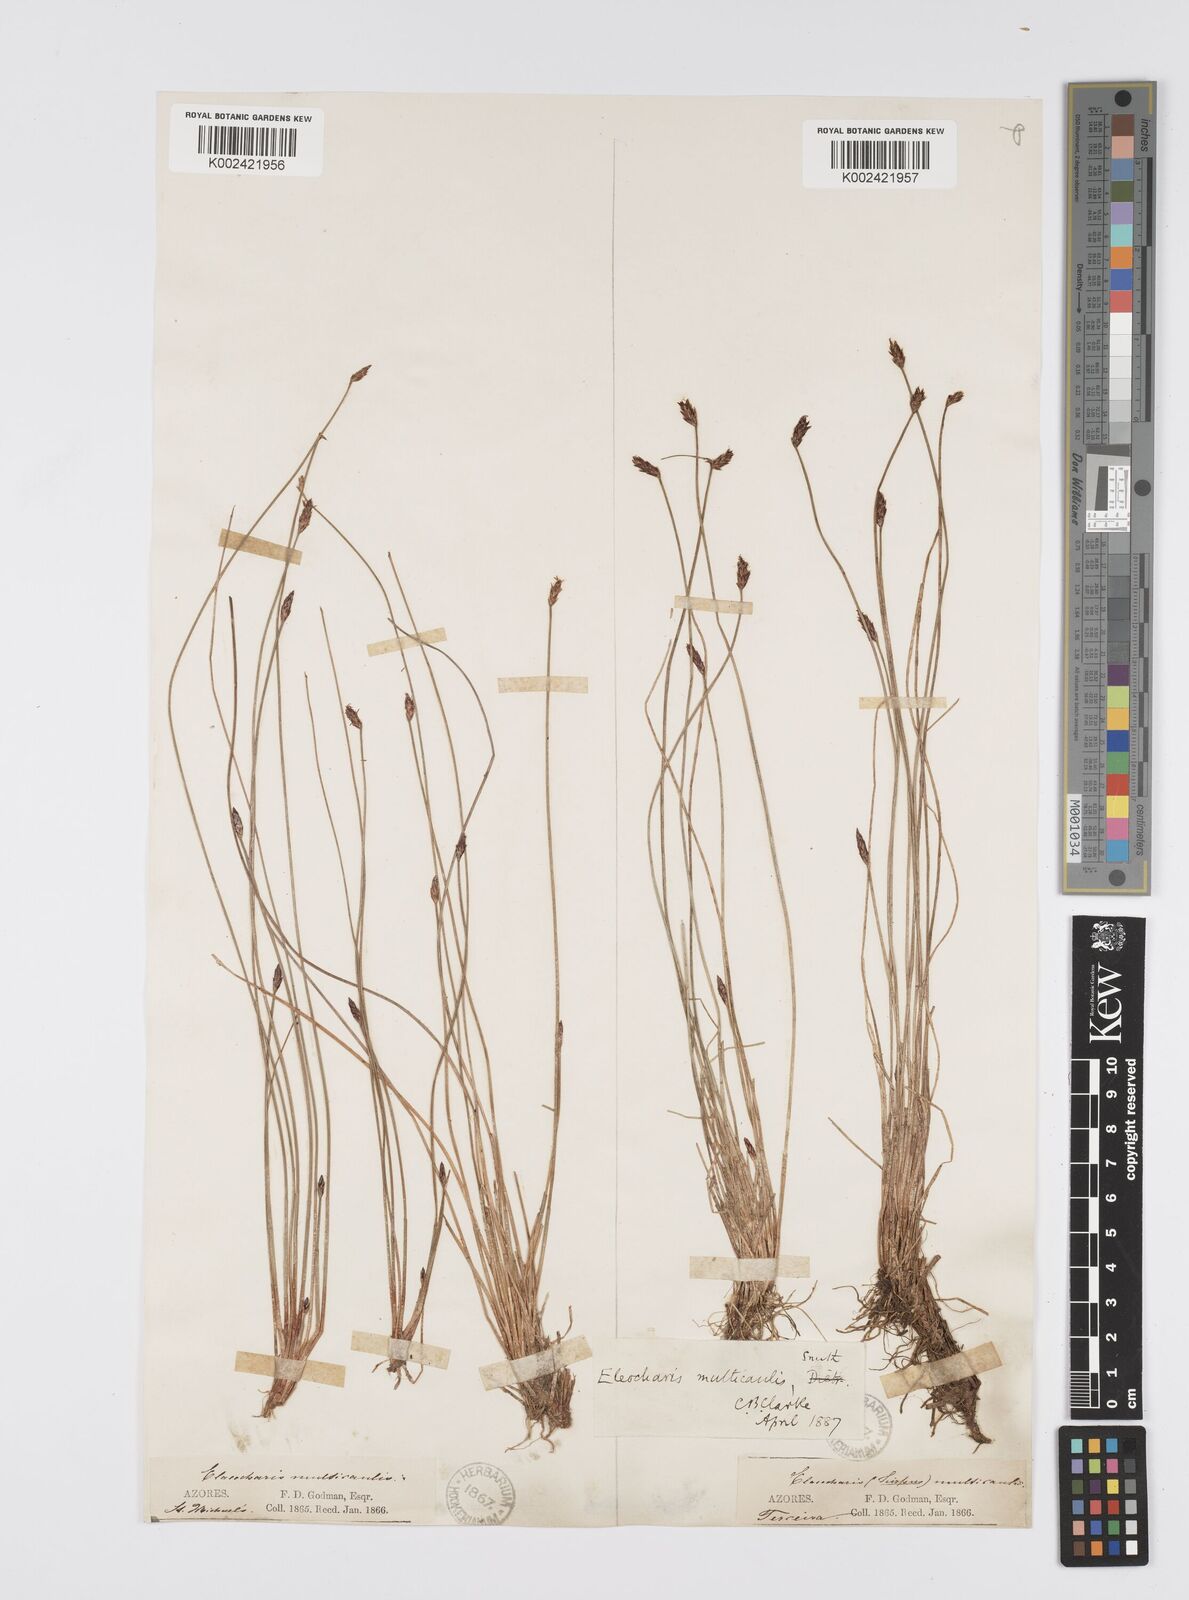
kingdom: Plantae
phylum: Tracheophyta
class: Liliopsida
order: Poales
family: Cyperaceae
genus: Eleocharis
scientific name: Eleocharis multicaulis
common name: Many-stalked spike-rush
